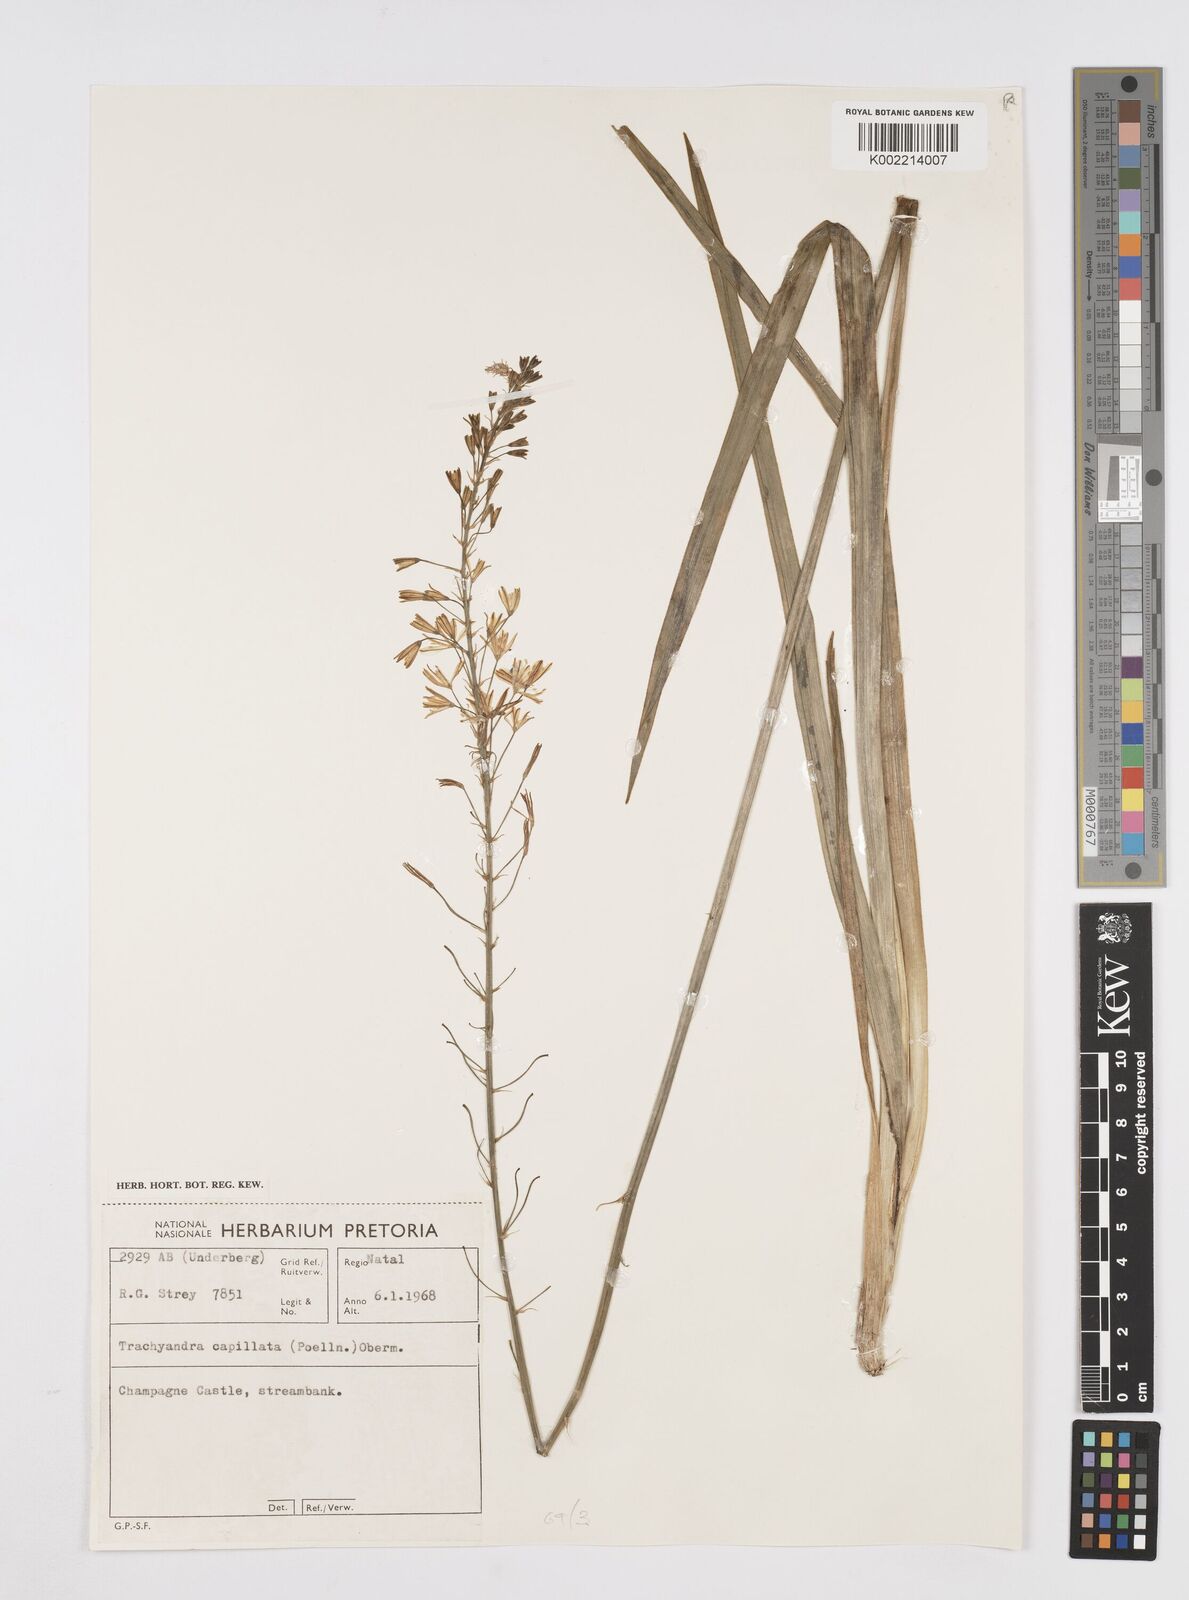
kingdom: Plantae
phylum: Tracheophyta
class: Liliopsida
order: Asparagales
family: Asphodelaceae
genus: Trachyandra
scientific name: Trachyandra capillata
